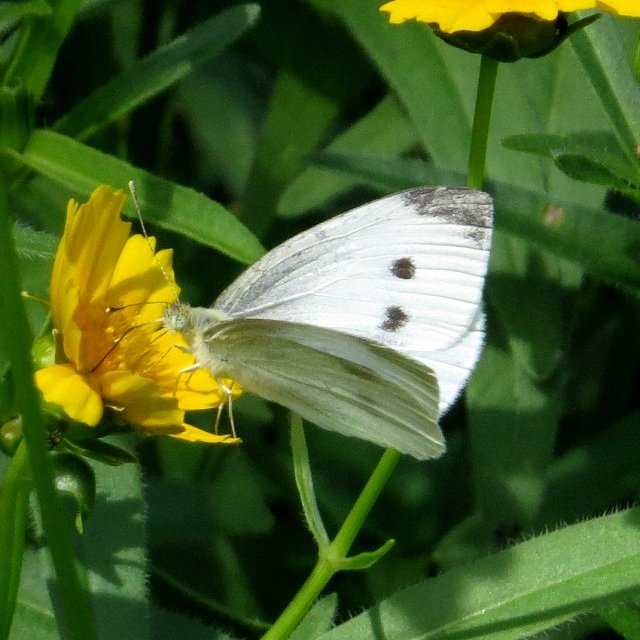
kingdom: Animalia
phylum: Arthropoda
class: Insecta
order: Lepidoptera
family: Pieridae
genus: Pieris
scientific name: Pieris rapae
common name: Cabbage White
